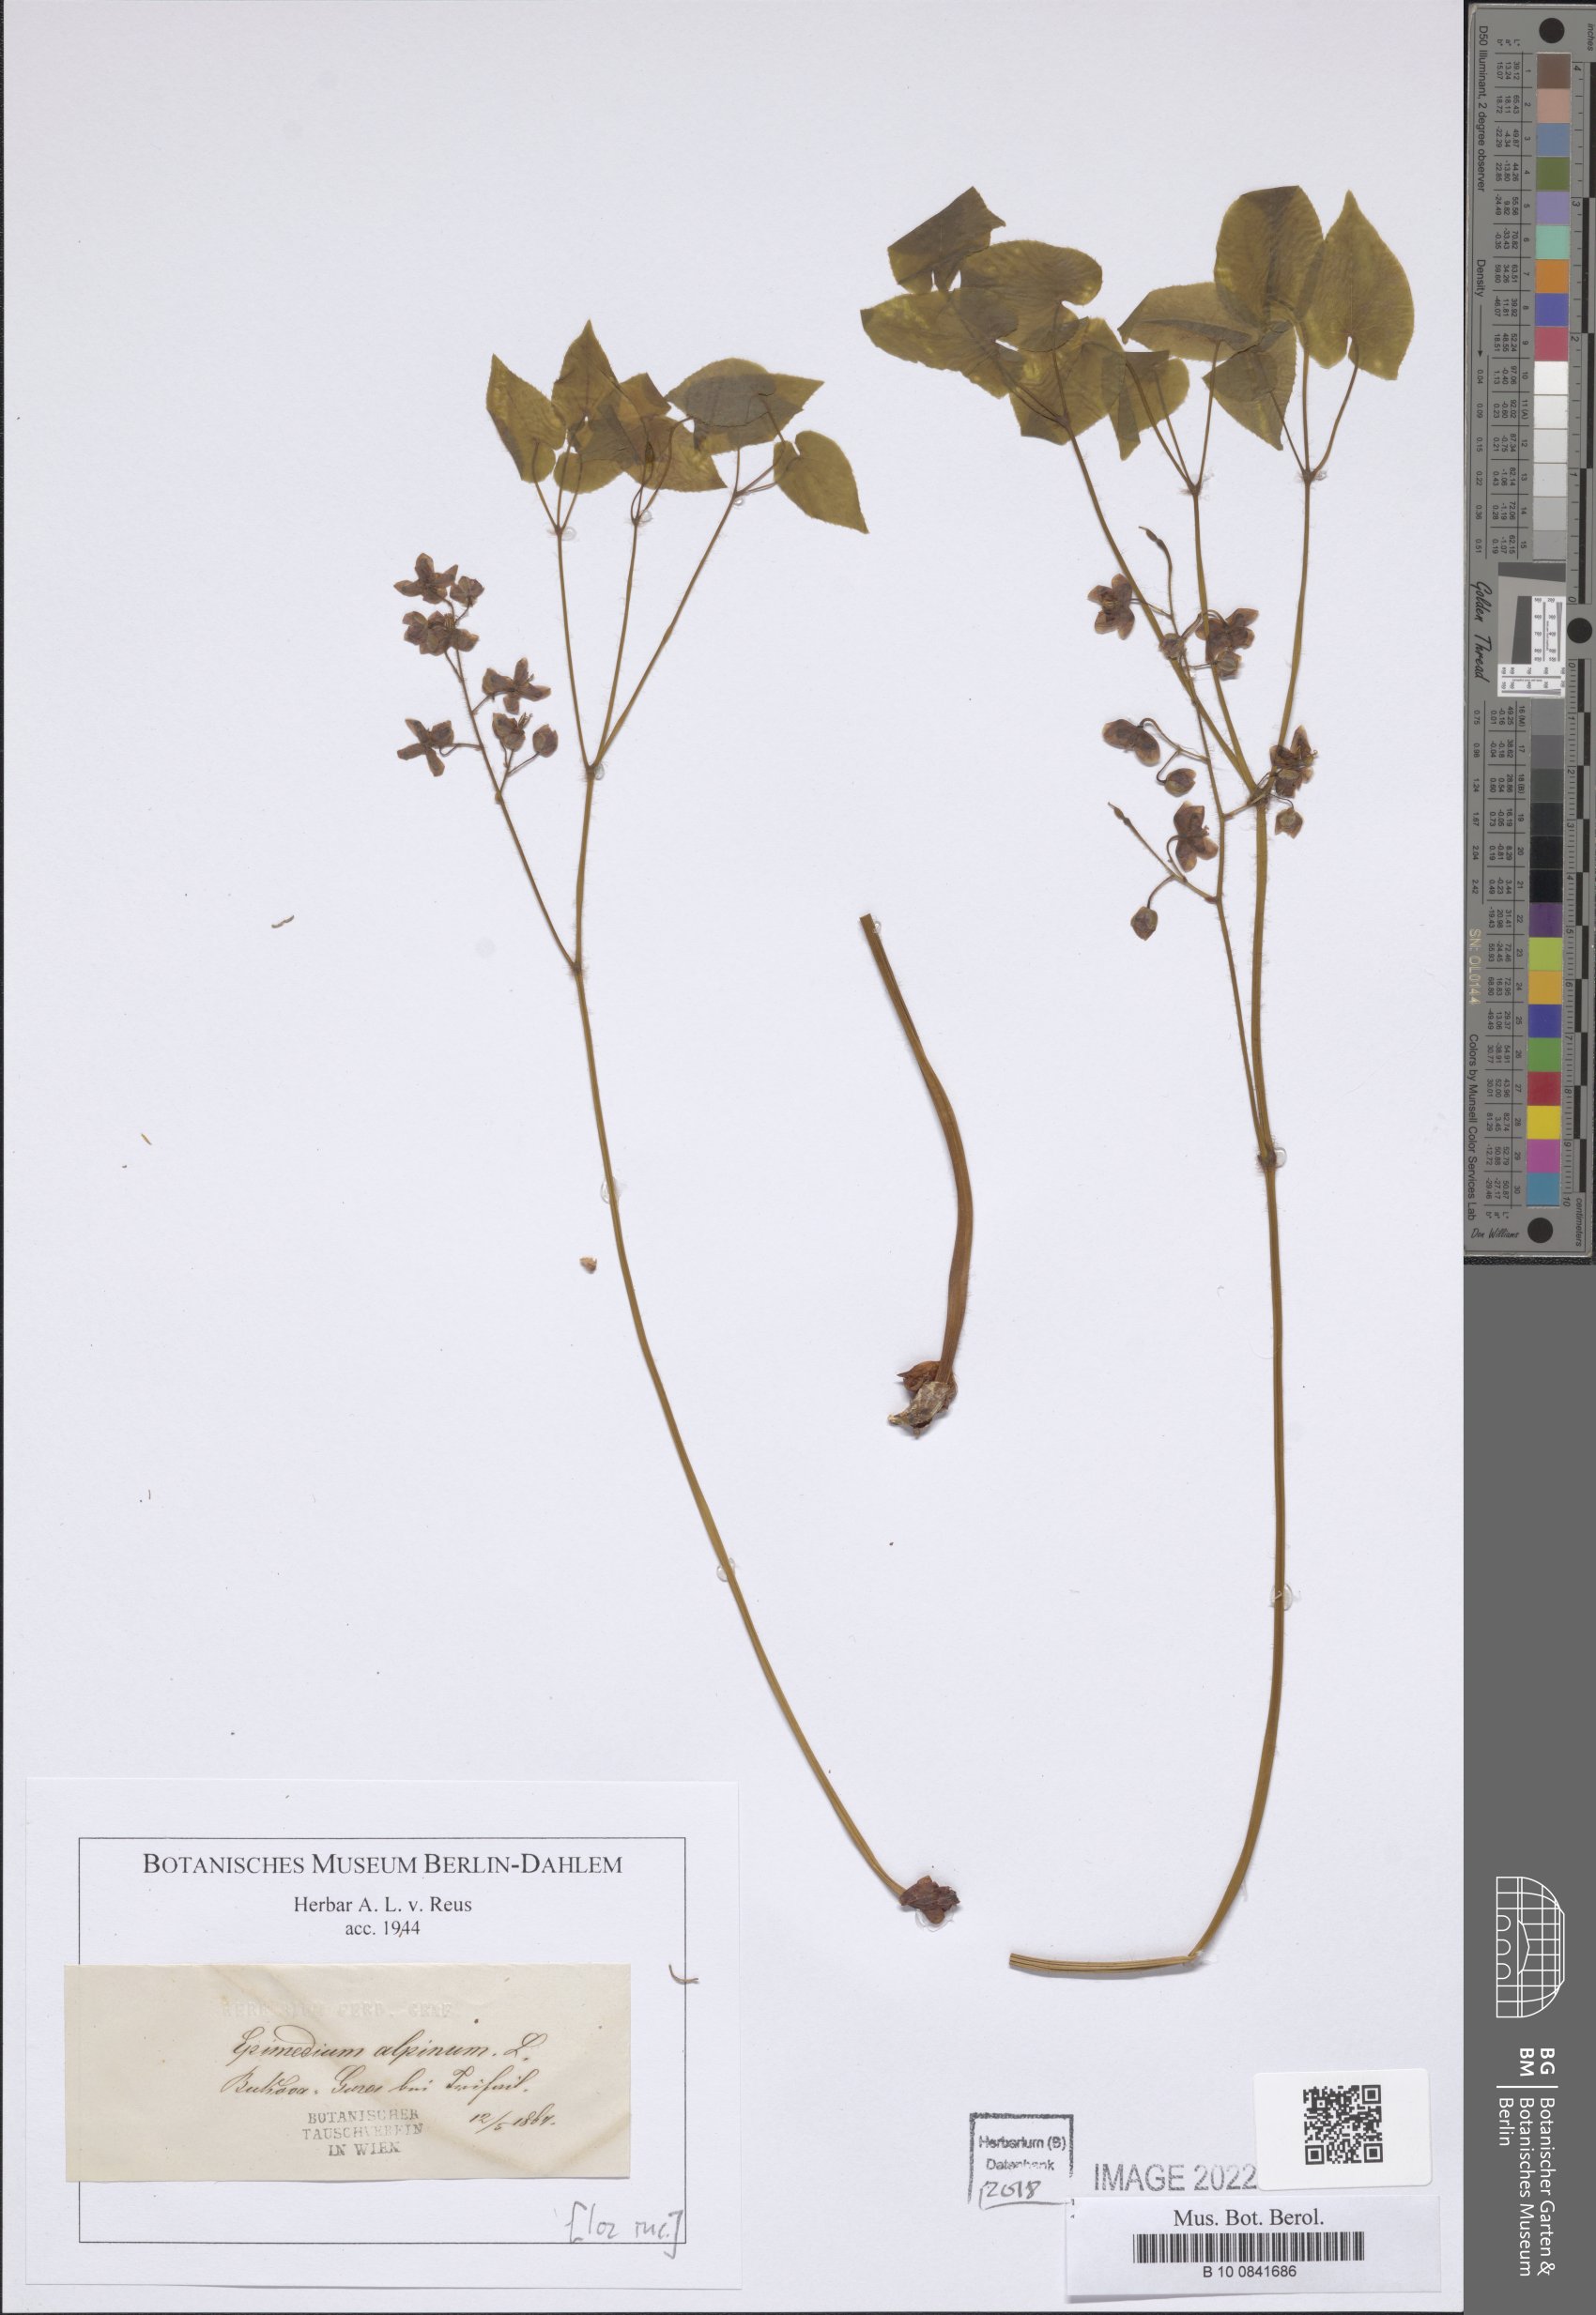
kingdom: Plantae
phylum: Tracheophyta
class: Magnoliopsida
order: Ranunculales
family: Berberidaceae
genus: Epimedium
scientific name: Epimedium alpinum
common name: Barrenwort
